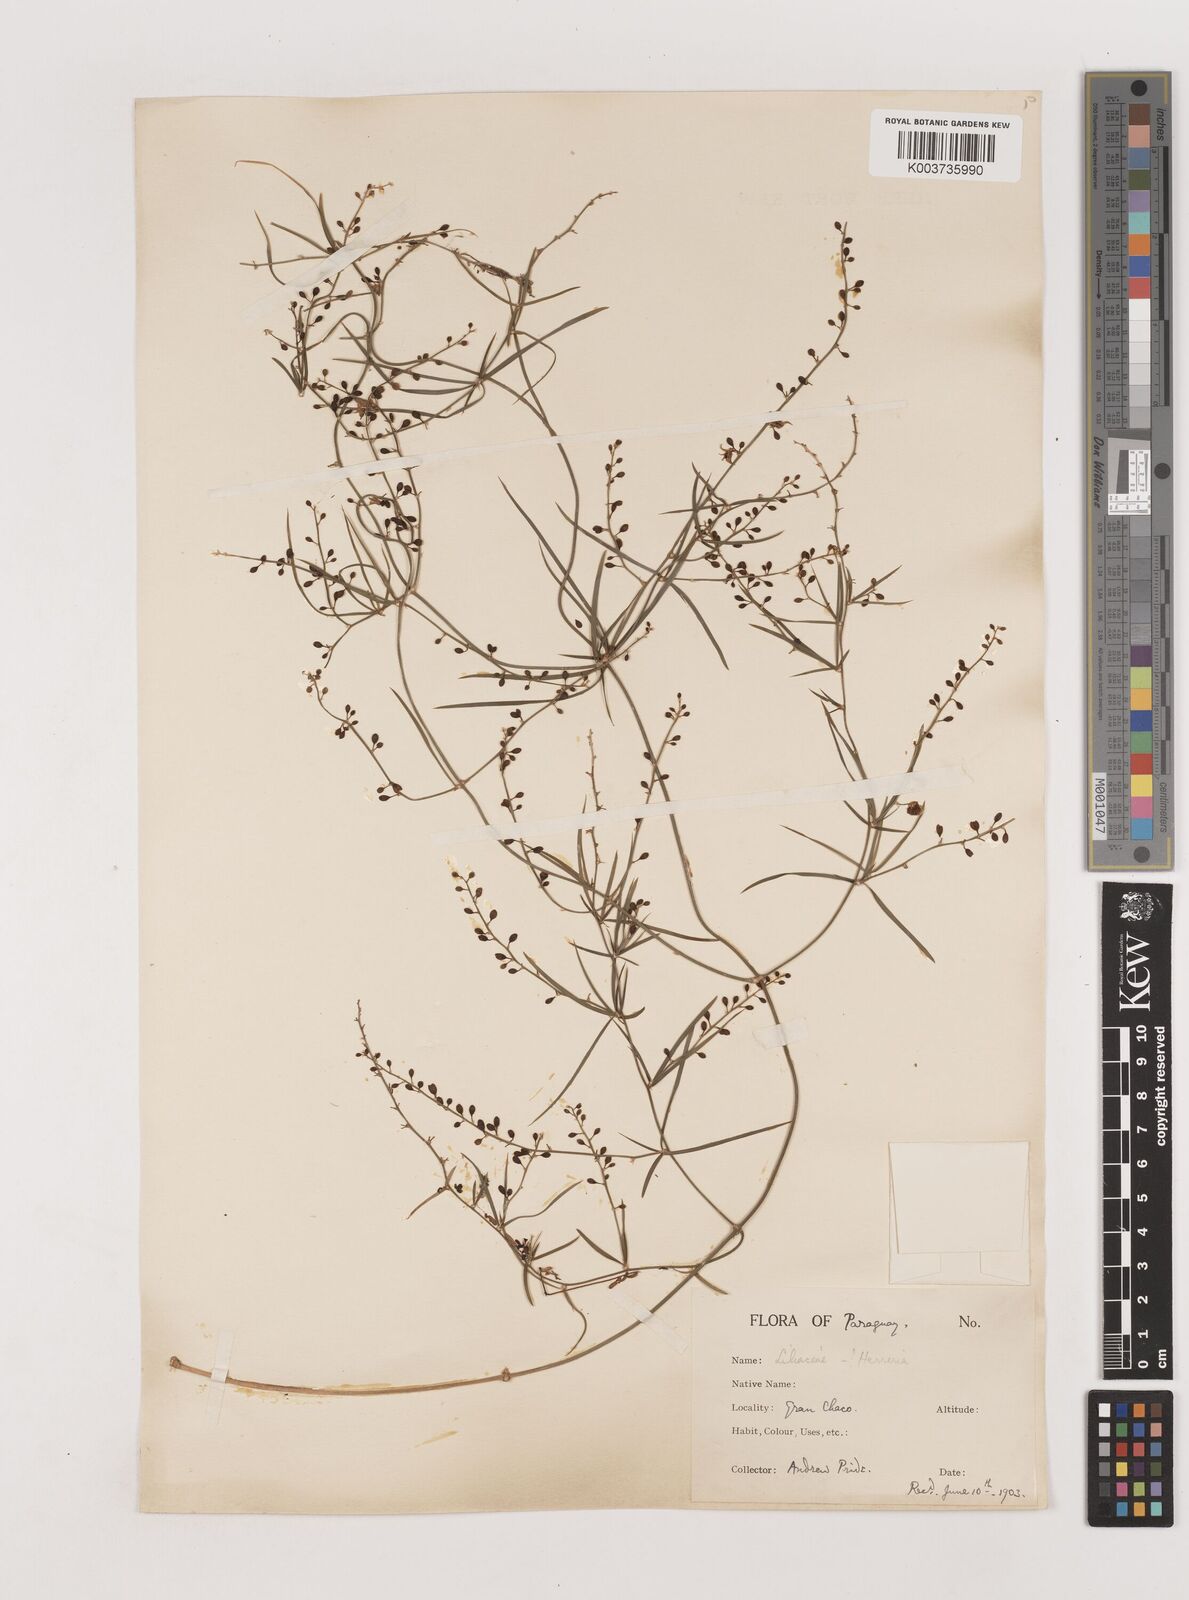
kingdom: Plantae
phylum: Tracheophyta
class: Liliopsida
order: Asparagales
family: Asparagaceae
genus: Herreria
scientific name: Herreria bonplandii
